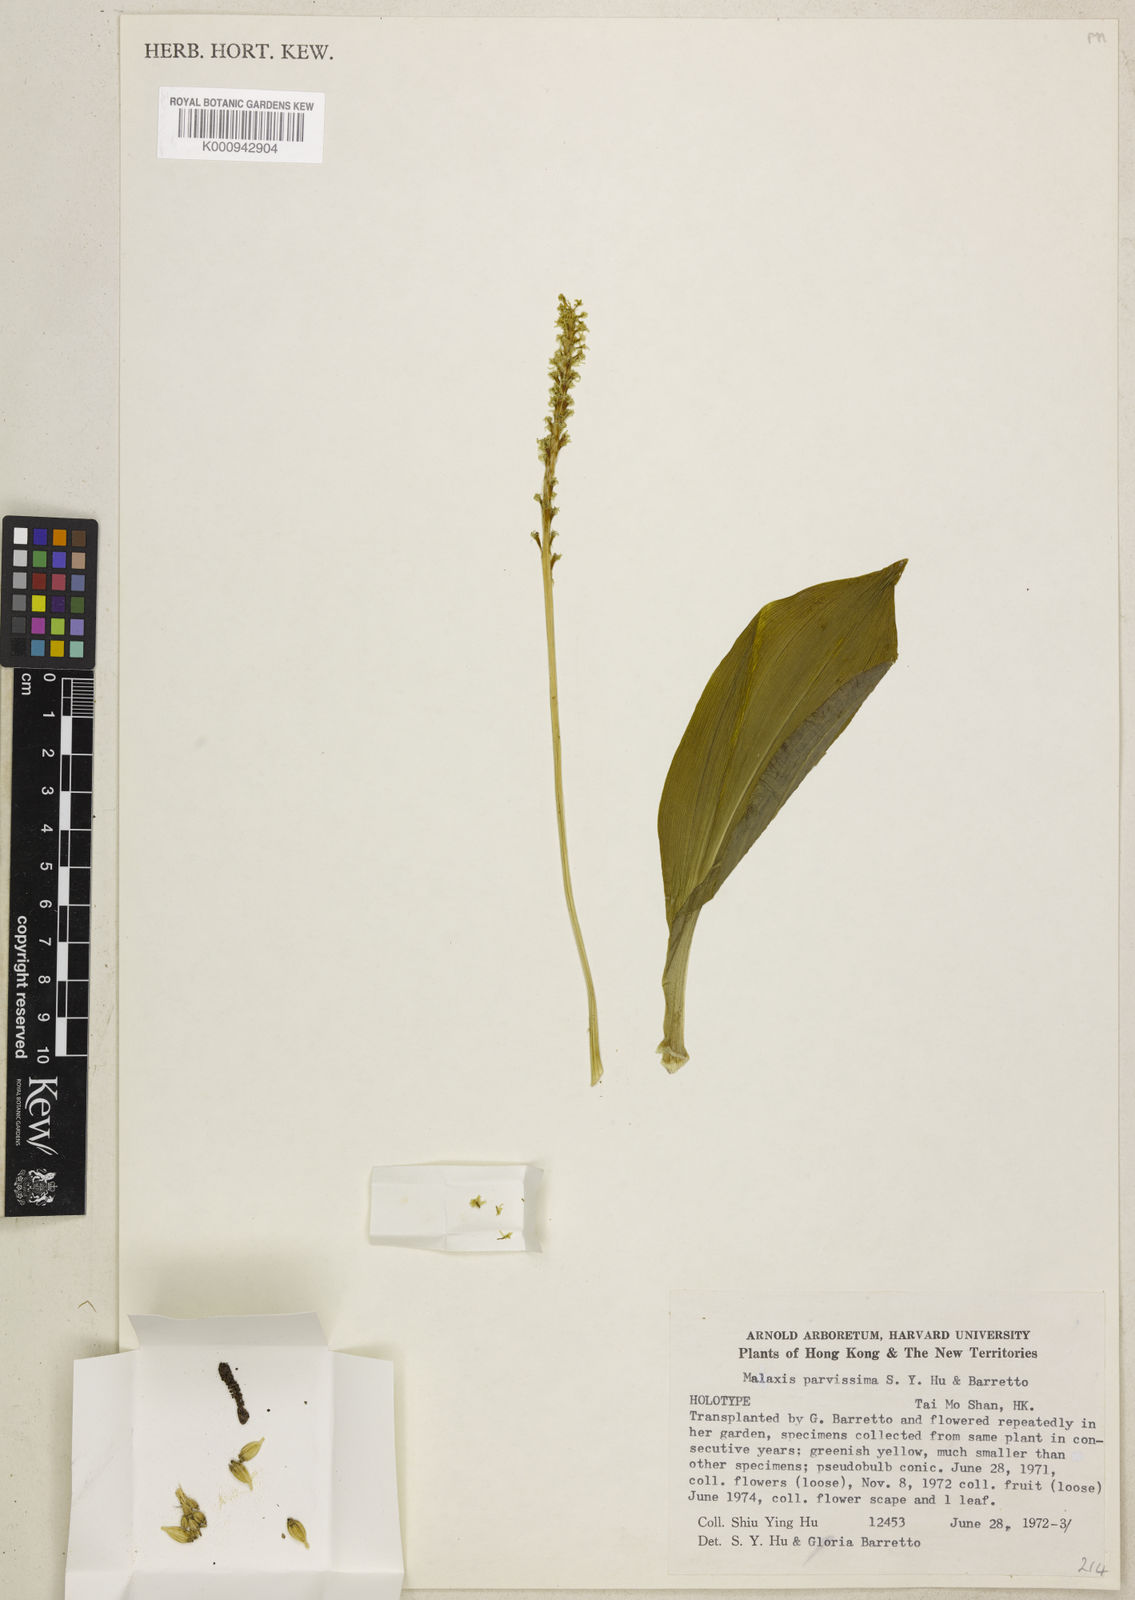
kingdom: Plantae
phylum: Tracheophyta
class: Liliopsida
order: Asparagales
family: Orchidaceae
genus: Dienia
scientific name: Dienia cylindrostachya
